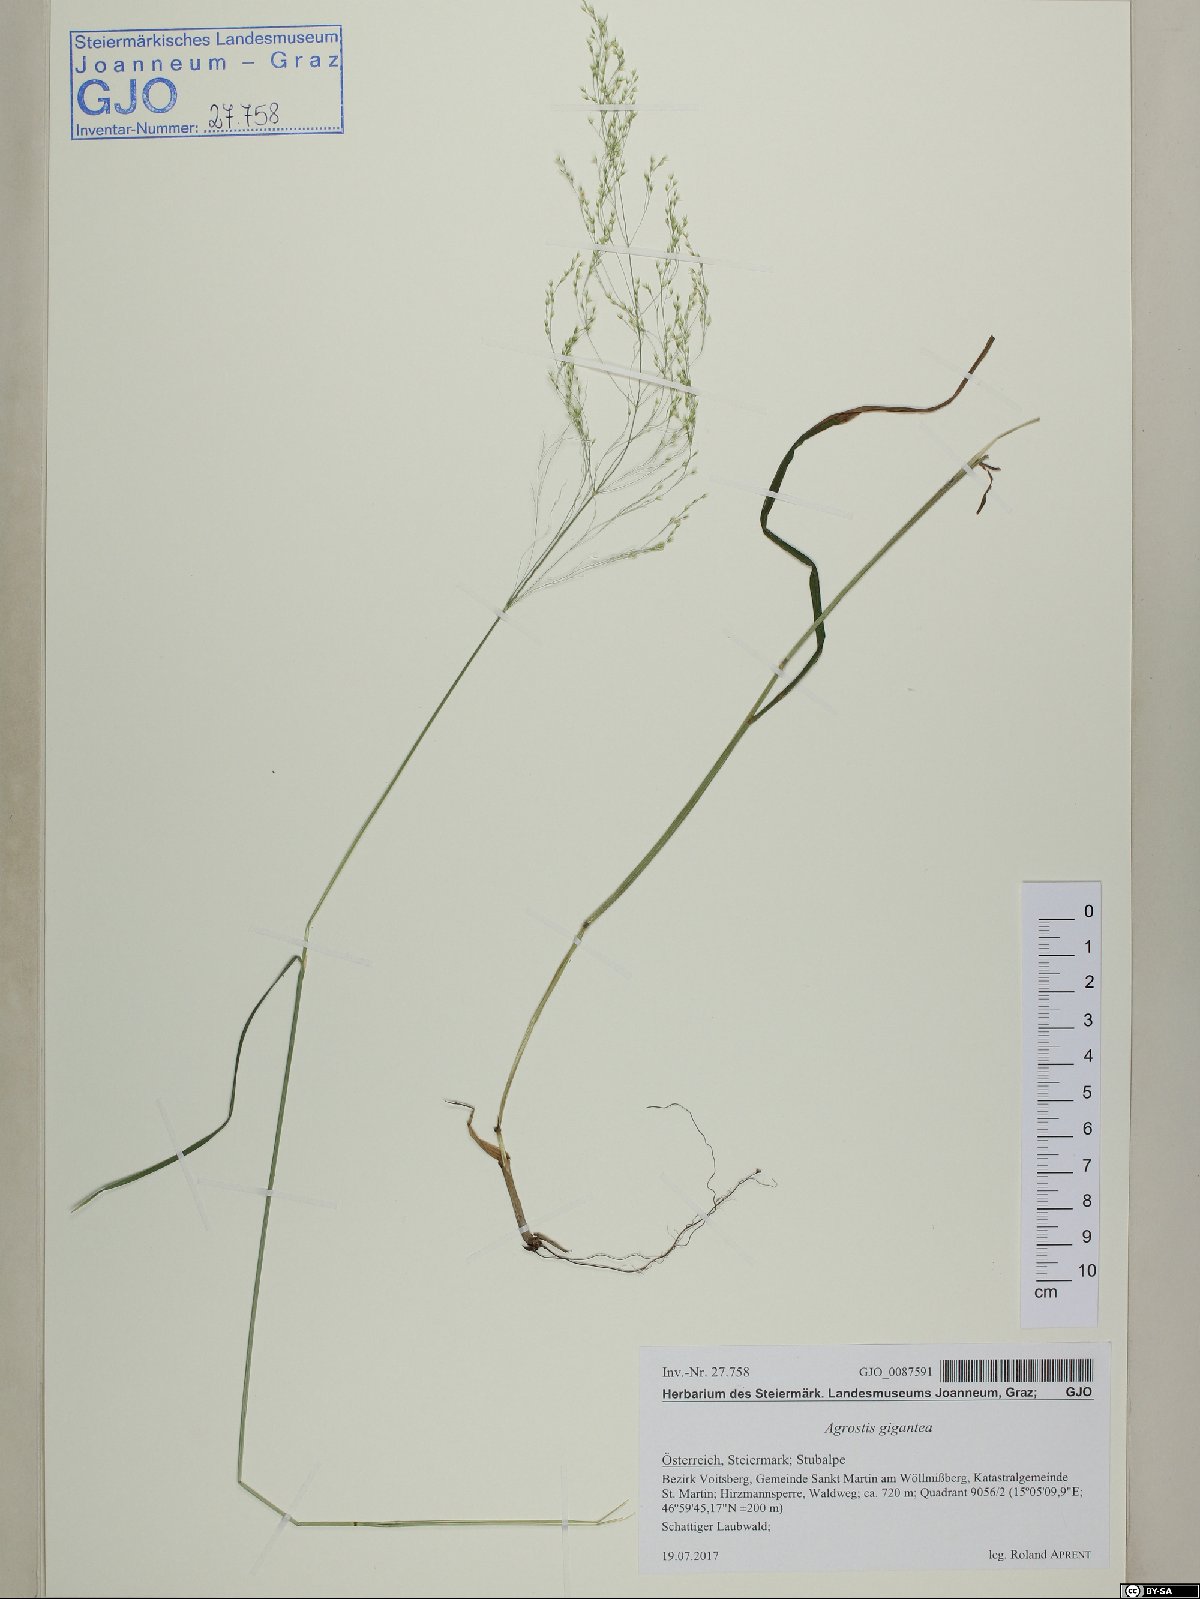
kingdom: Plantae
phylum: Tracheophyta
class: Liliopsida
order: Poales
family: Poaceae
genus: Agrostis
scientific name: Agrostis gigantea
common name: Black bent
